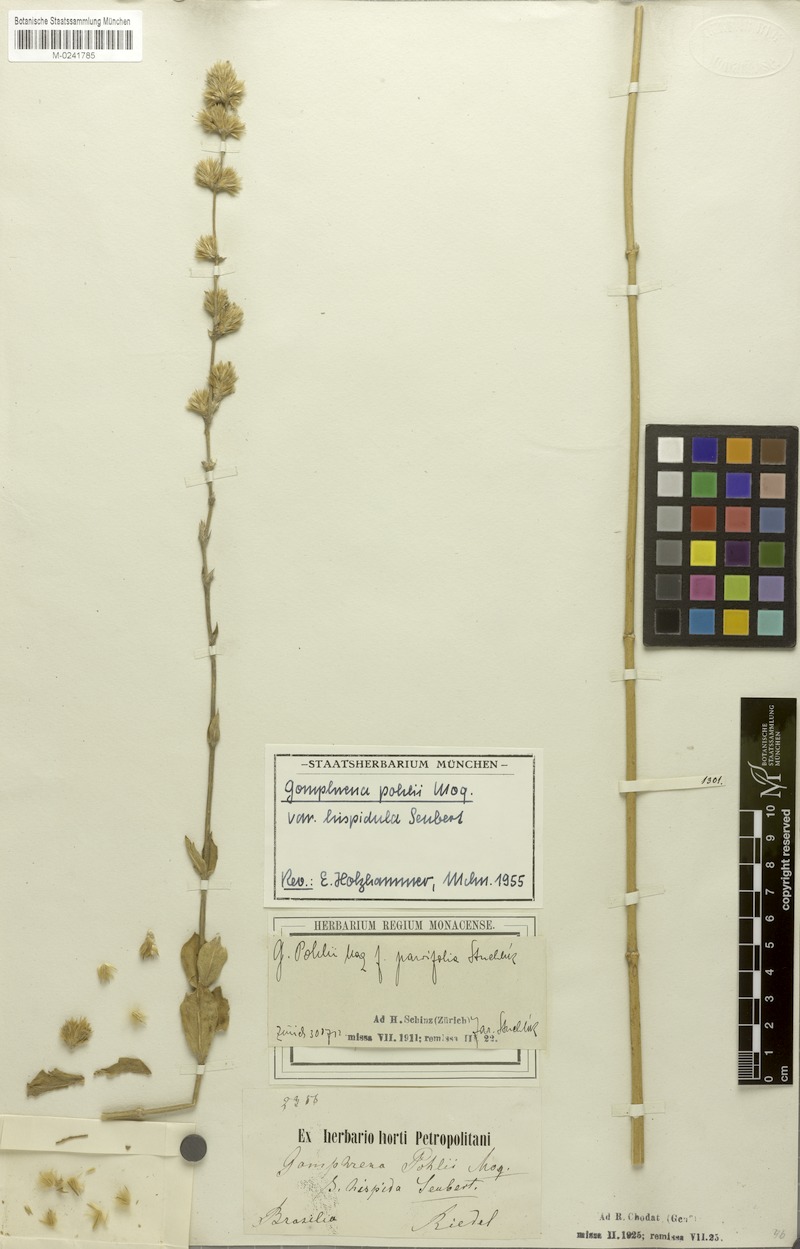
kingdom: Plantae
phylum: Tracheophyta
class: Magnoliopsida
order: Caryophyllales
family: Amaranthaceae
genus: Gomphrena
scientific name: Gomphrena pohlii
